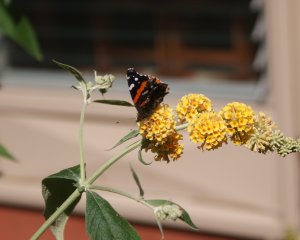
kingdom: Animalia
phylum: Arthropoda
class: Insecta
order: Lepidoptera
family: Nymphalidae
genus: Vanessa
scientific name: Vanessa atalanta
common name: Red Admiral
